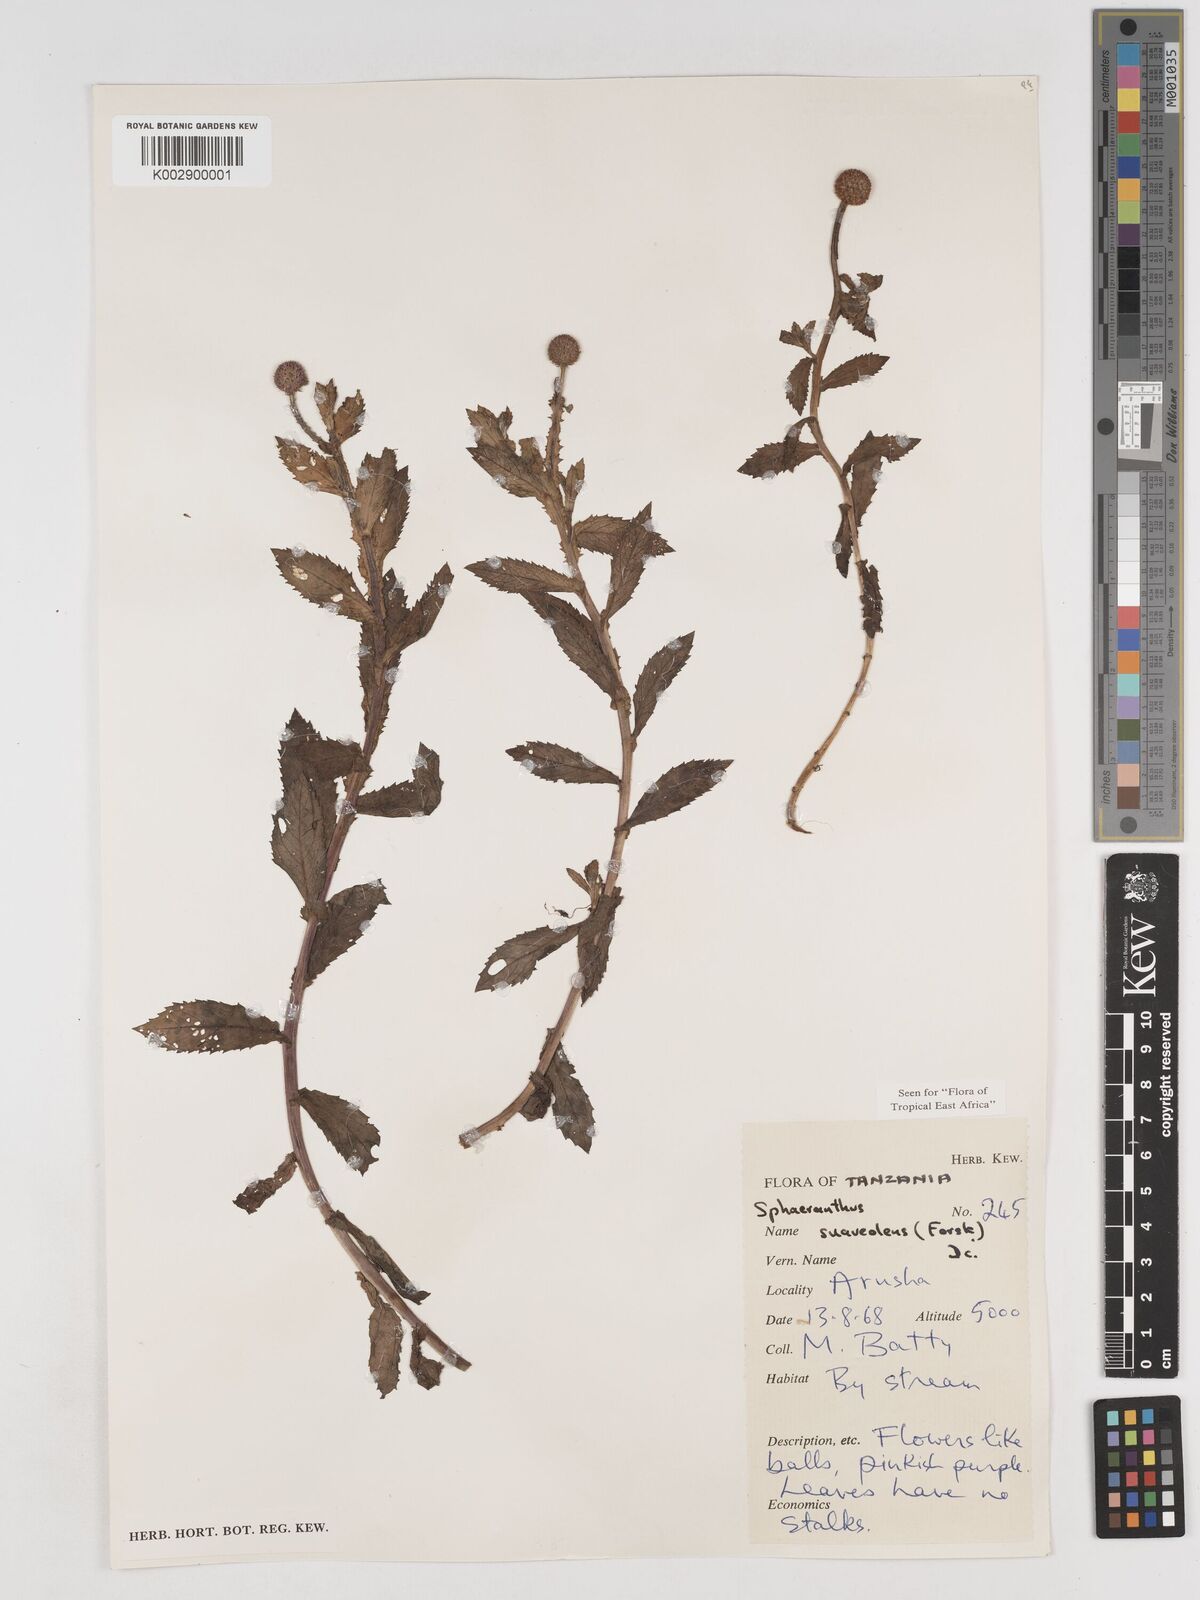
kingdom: Plantae
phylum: Tracheophyta
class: Magnoliopsida
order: Asterales
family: Asteraceae
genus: Sphaeranthus
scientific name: Sphaeranthus suaveolens
